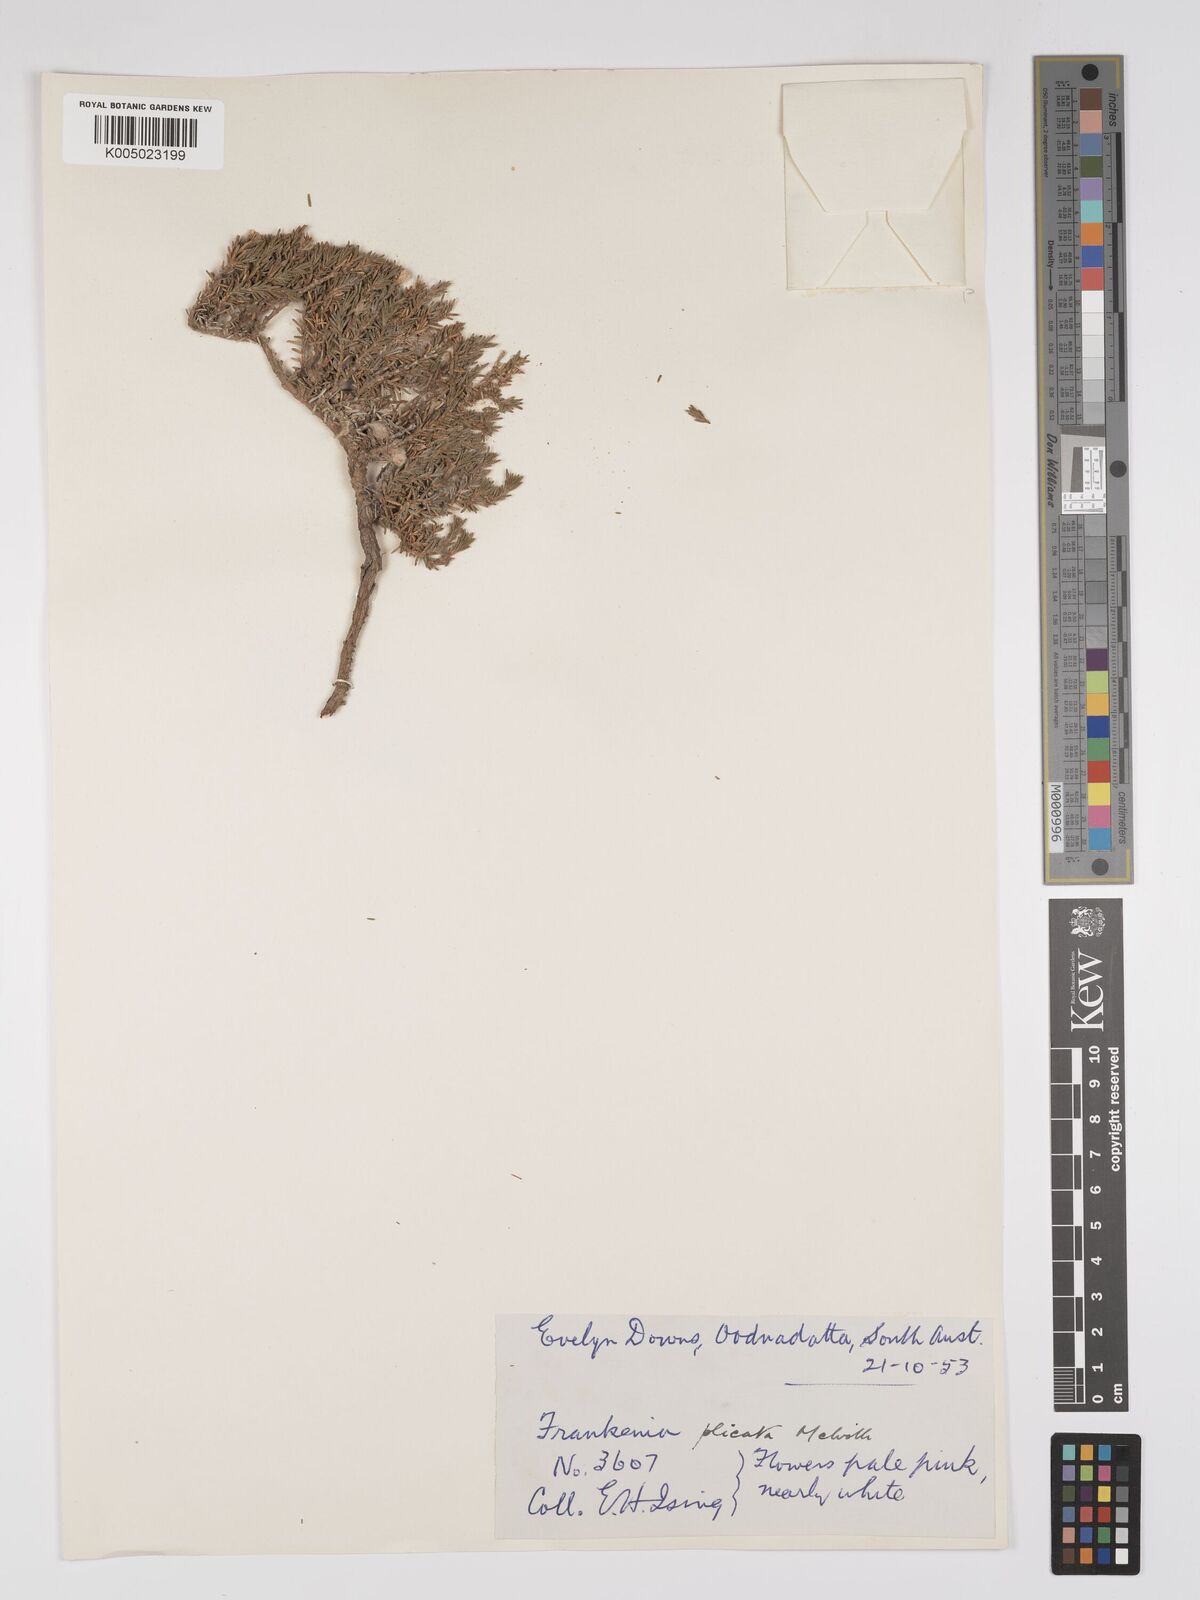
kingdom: Plantae
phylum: Tracheophyta
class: Magnoliopsida
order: Caryophyllales
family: Frankeniaceae
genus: Frankenia
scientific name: Frankenia plicata
